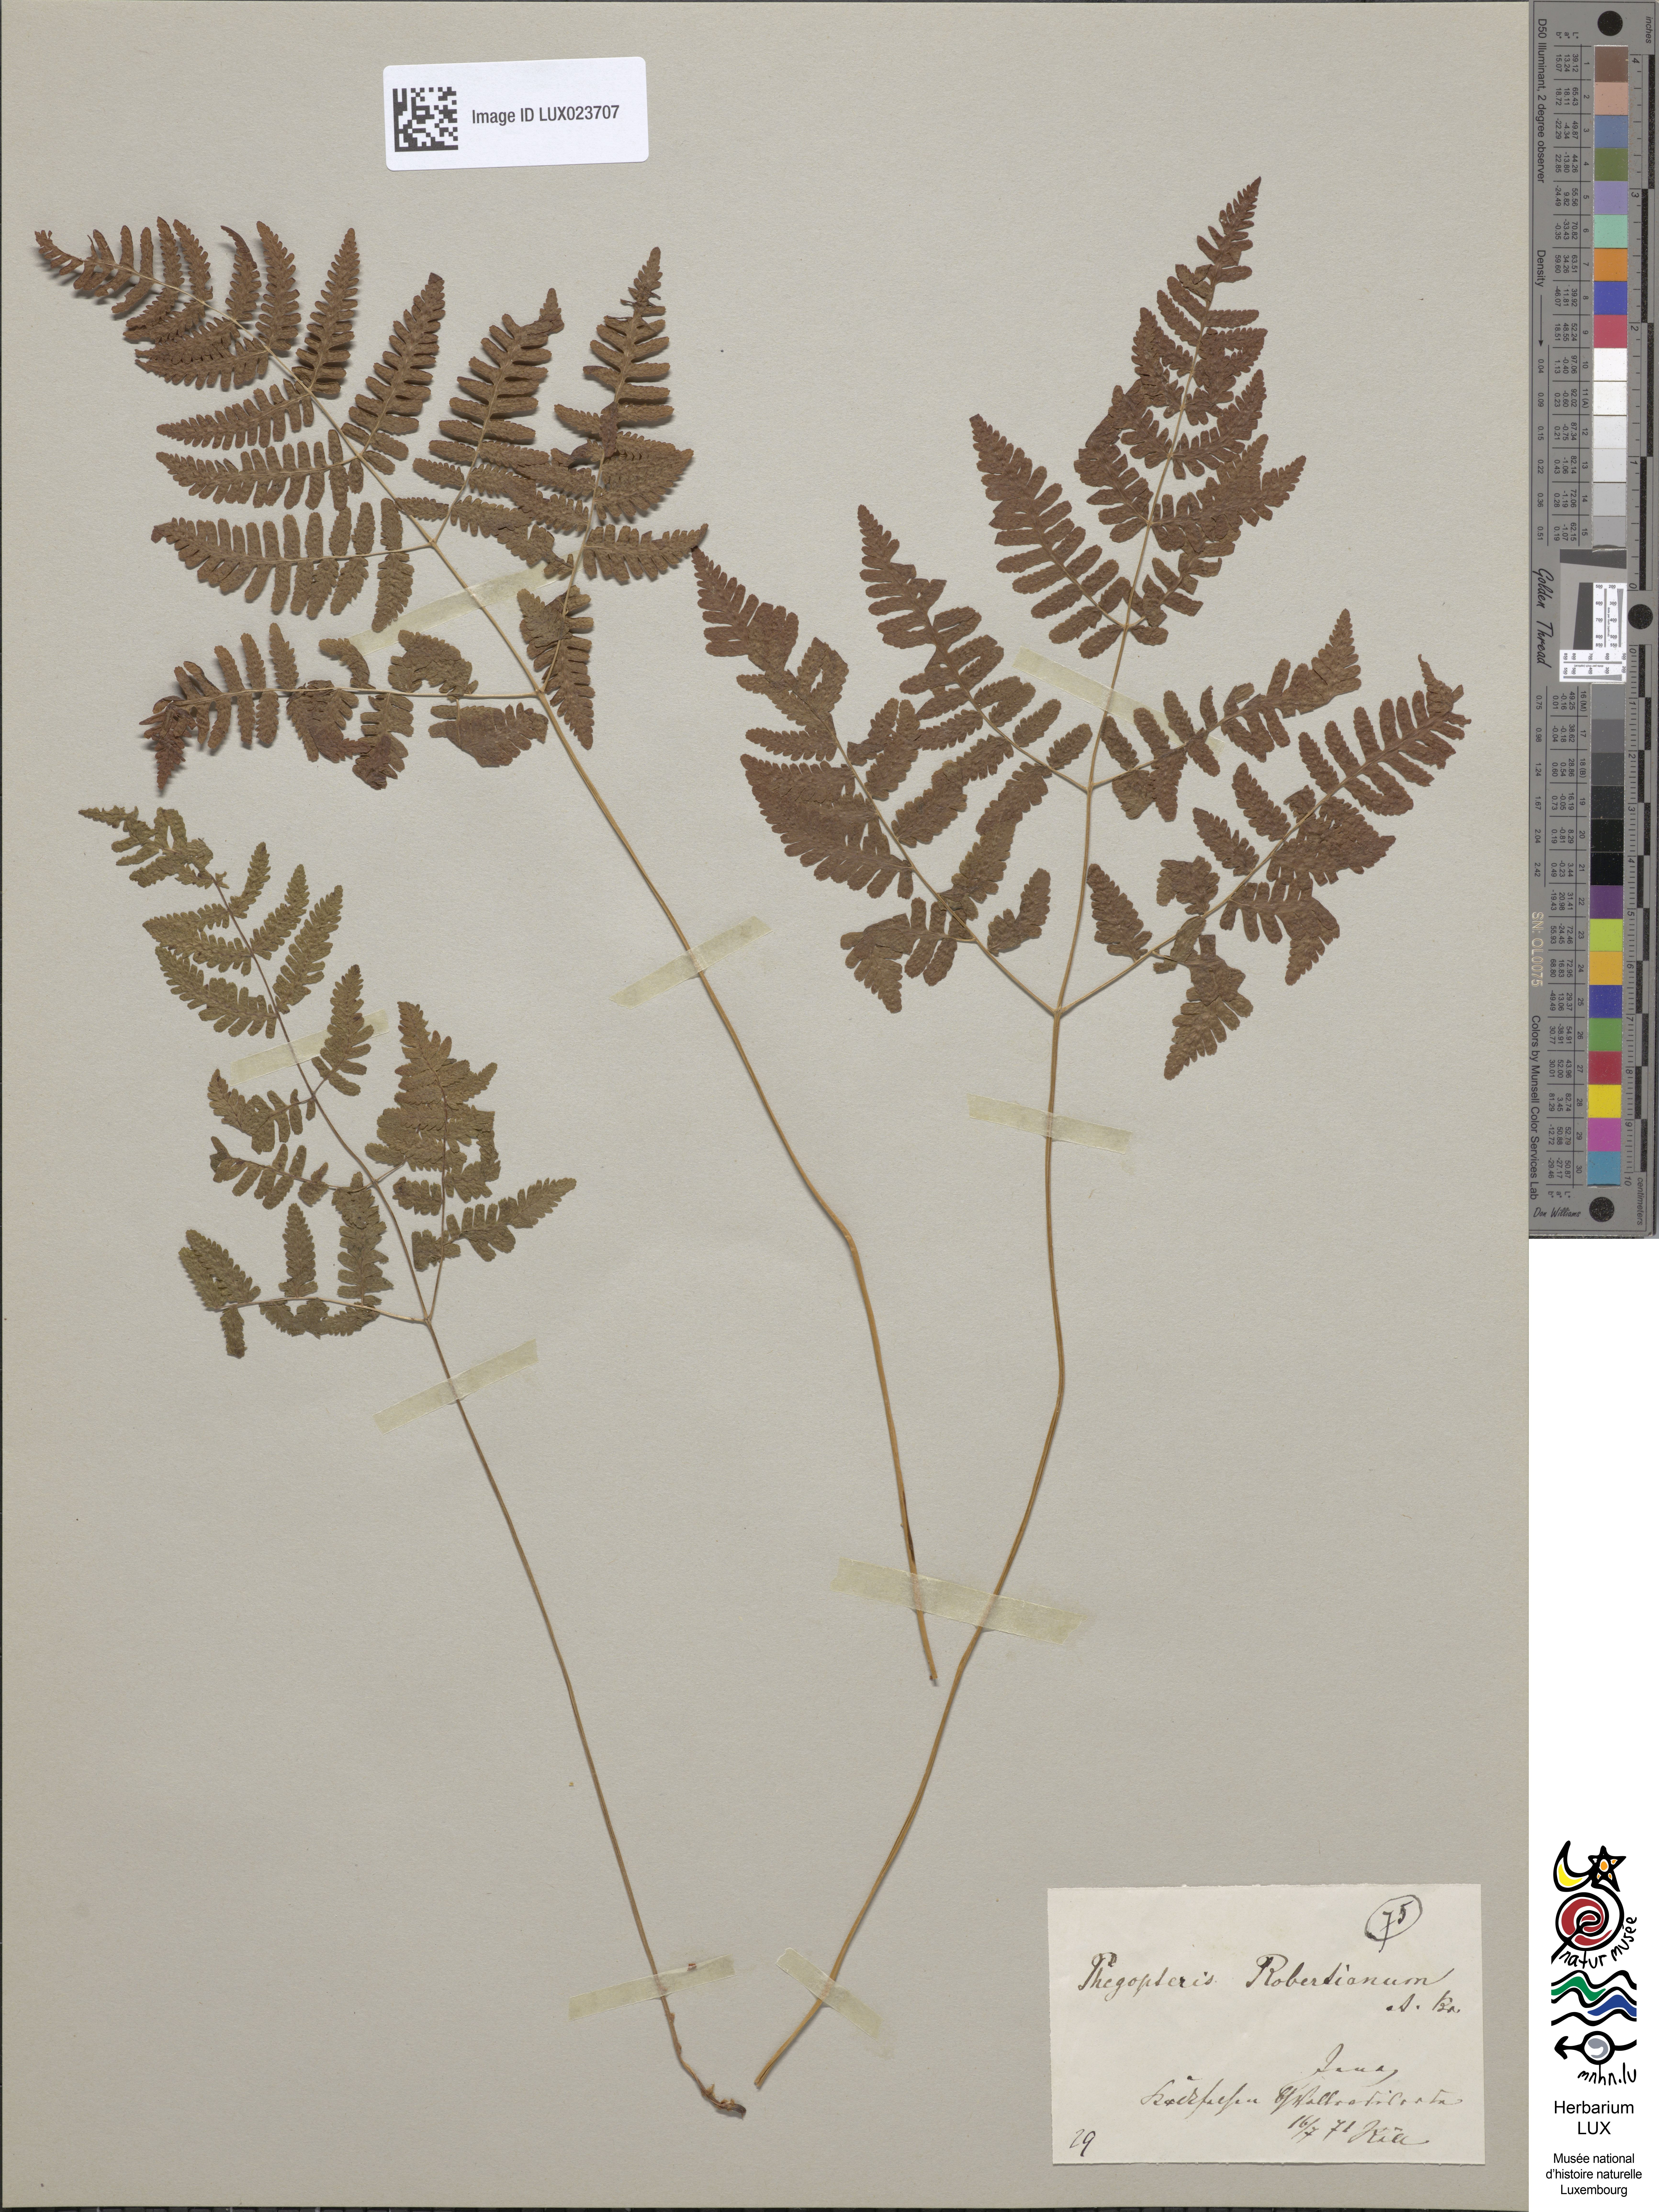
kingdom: Plantae
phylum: Tracheophyta
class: Polypodiopsida
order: Polypodiales
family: Cystopteridaceae
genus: Gymnocarpium
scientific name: Gymnocarpium robertianum
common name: Limestone fern
